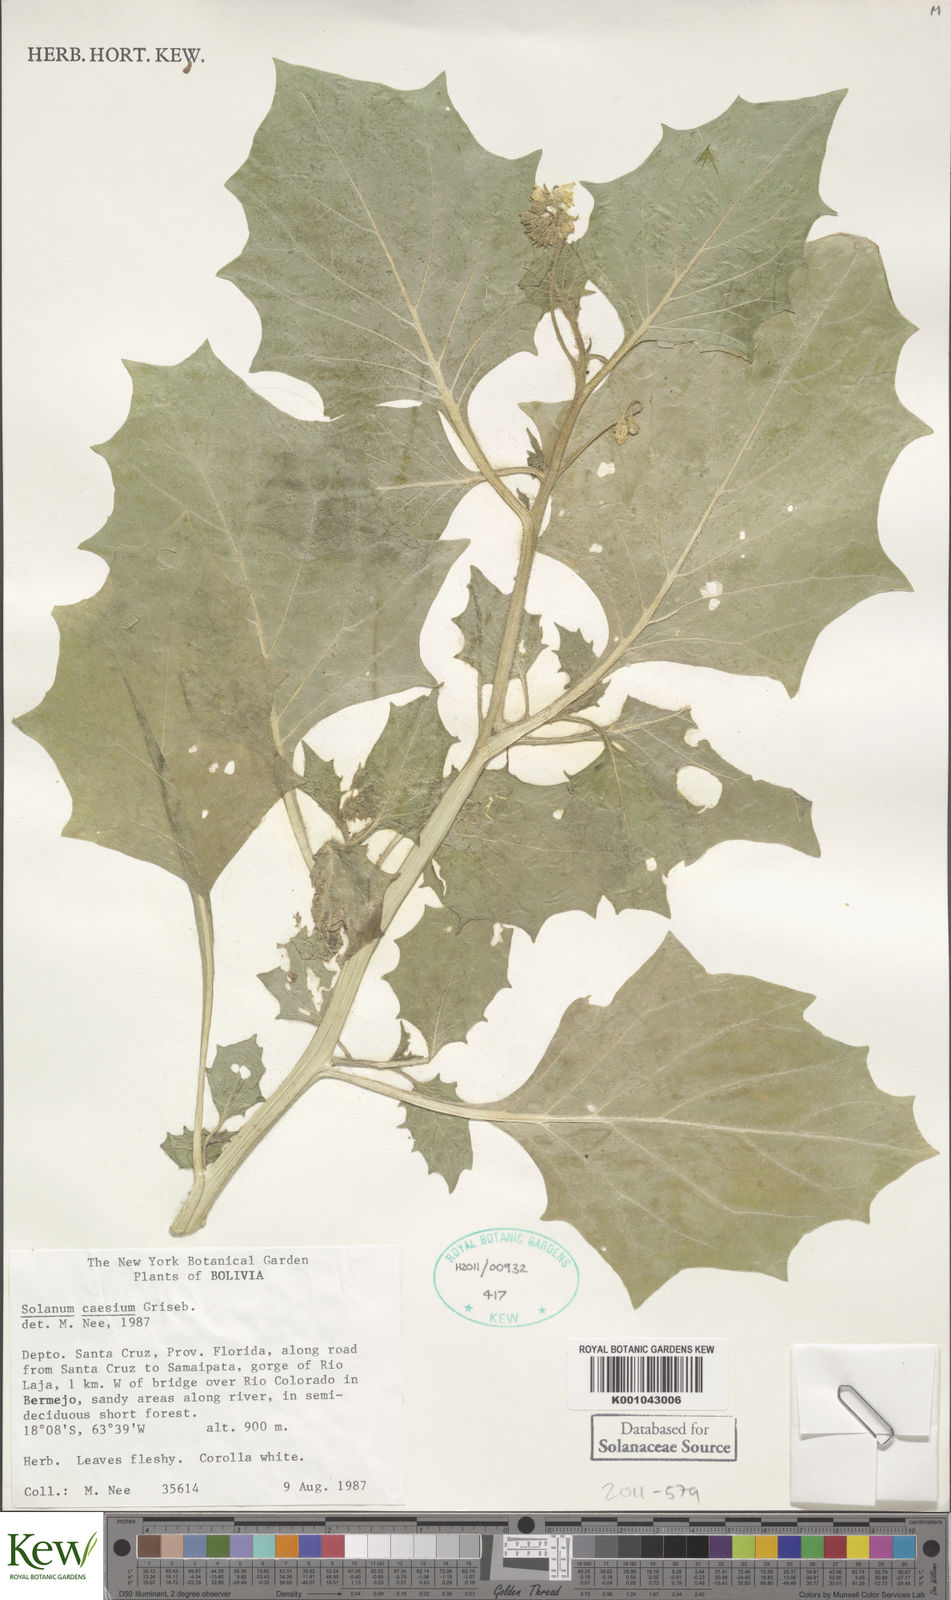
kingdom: Plantae
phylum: Tracheophyta
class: Magnoliopsida
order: Solanales
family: Solanaceae
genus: Solanum
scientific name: Solanum caesium
